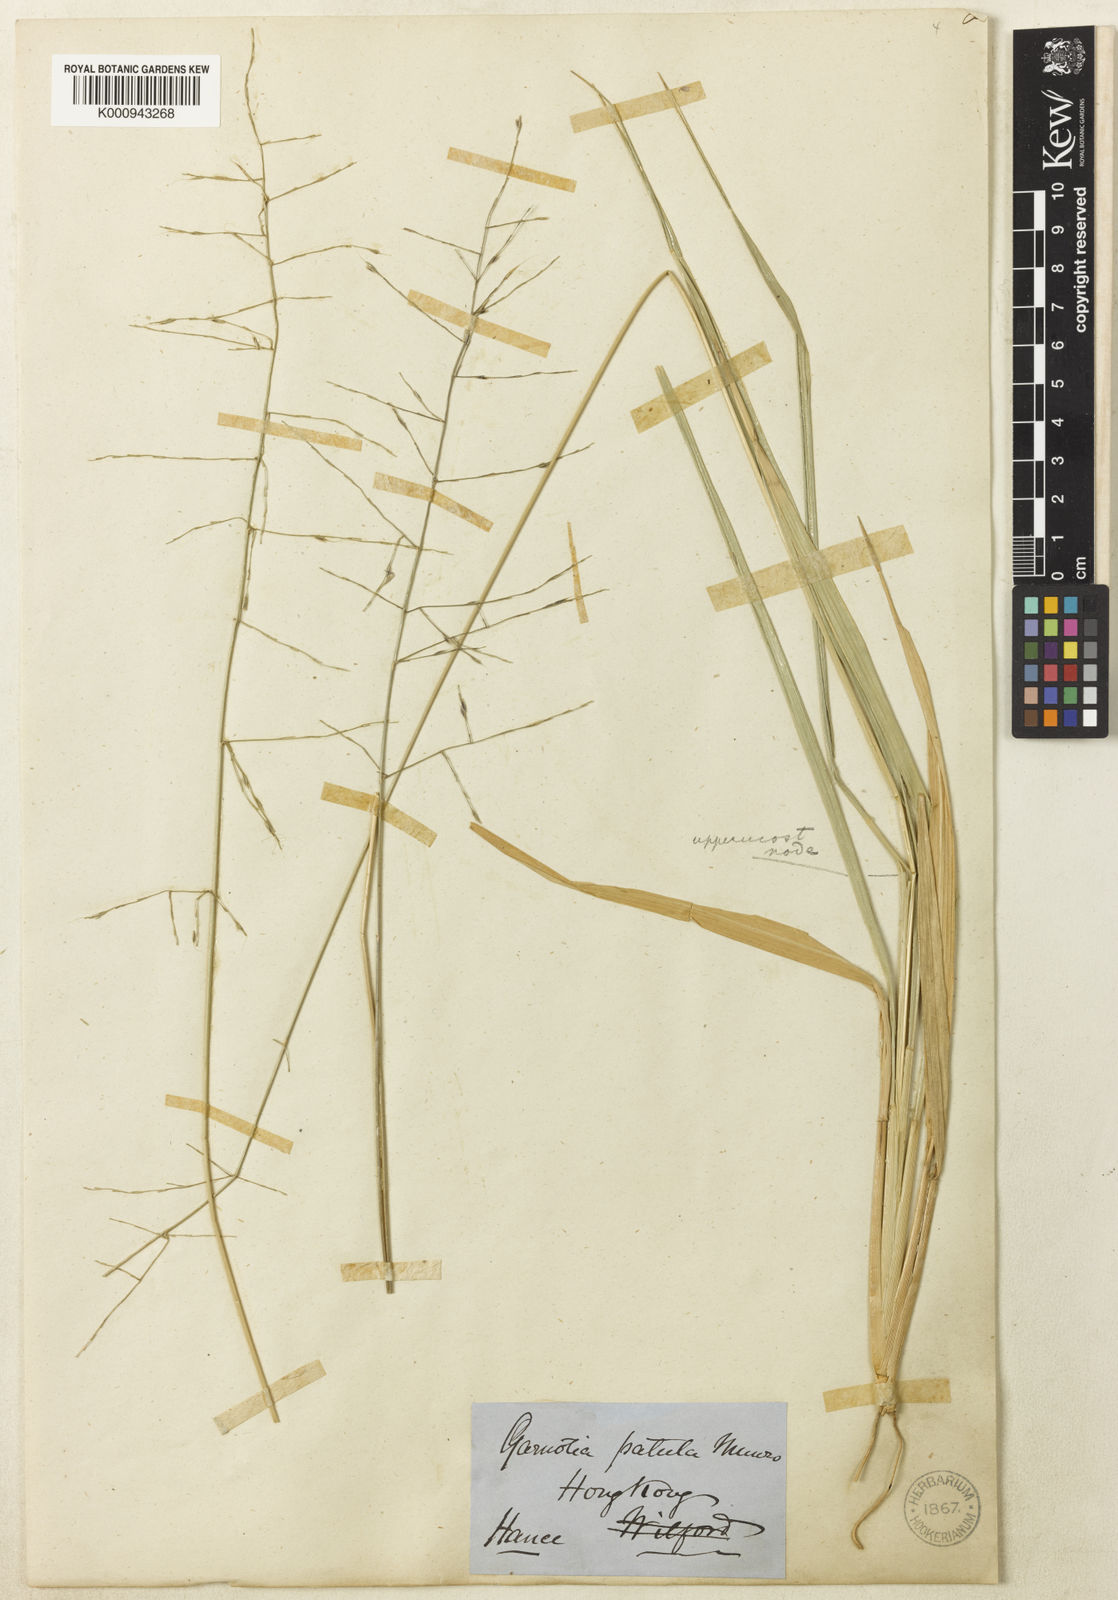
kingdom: Plantae
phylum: Tracheophyta
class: Liliopsida
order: Poales
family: Poaceae
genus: Garnotia
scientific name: Garnotia patula
